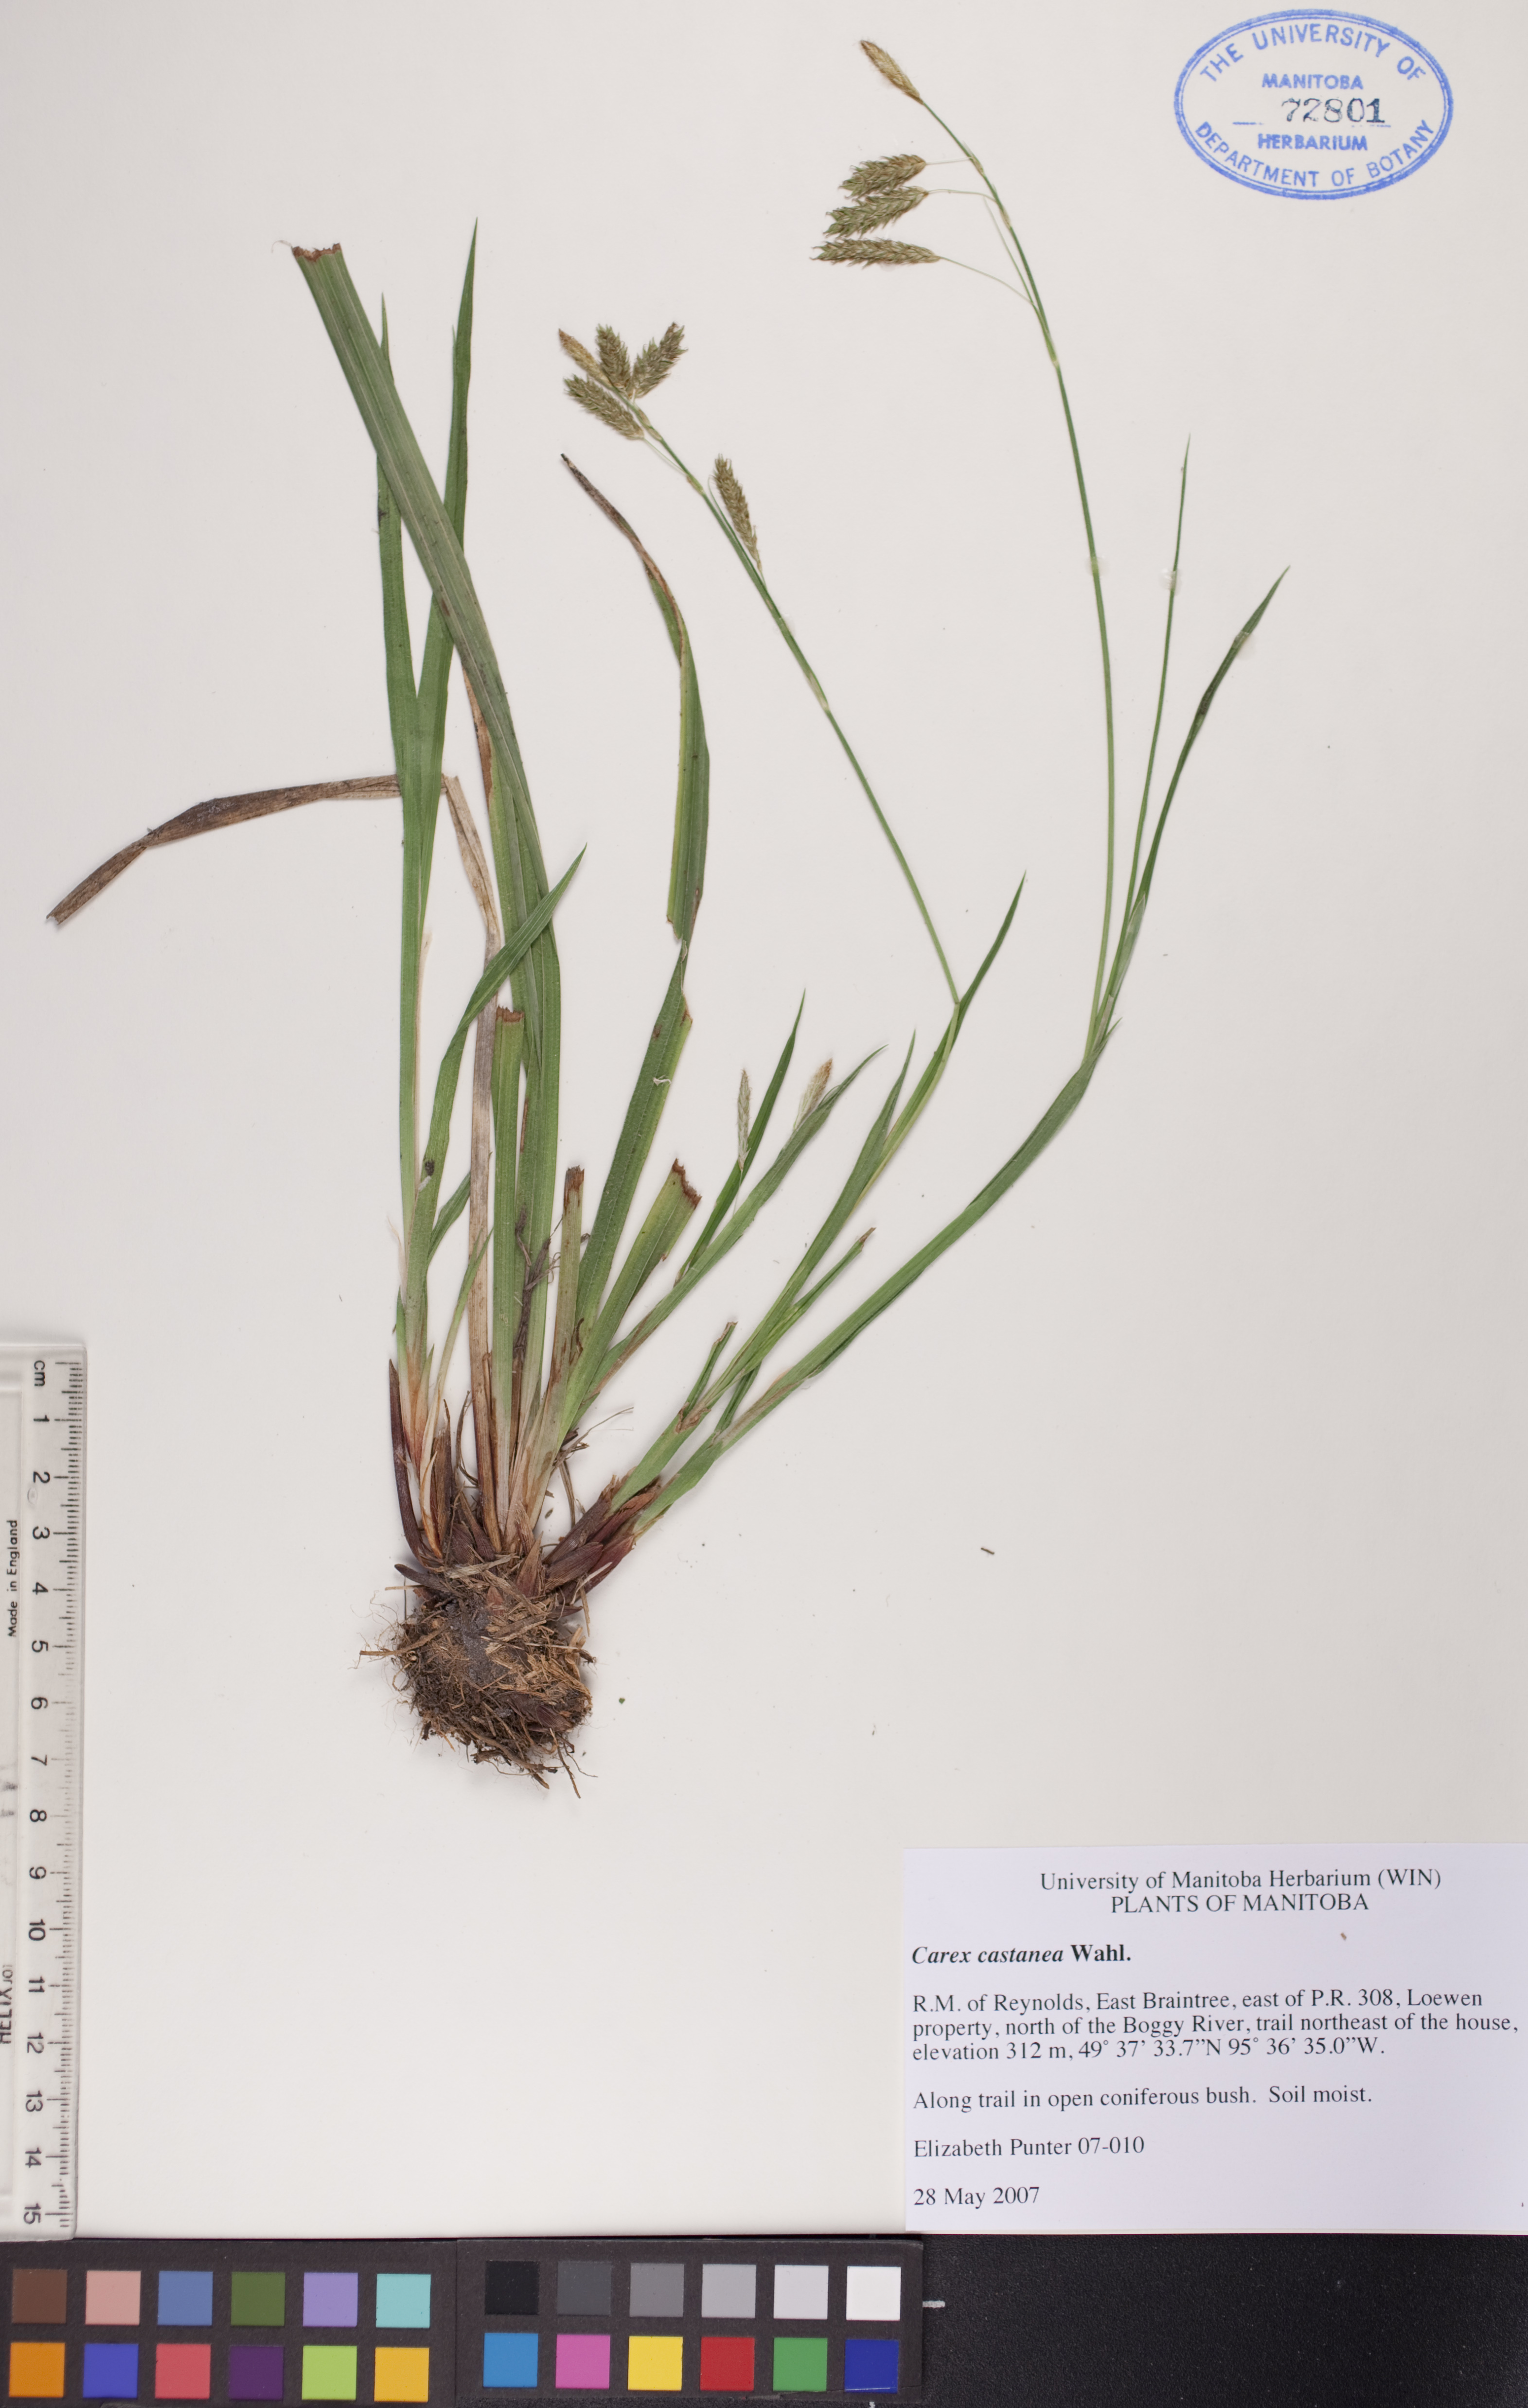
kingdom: Plantae
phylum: Tracheophyta
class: Liliopsida
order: Poales
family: Cyperaceae
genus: Carex
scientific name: Carex castanea
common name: Chestnut sedge
